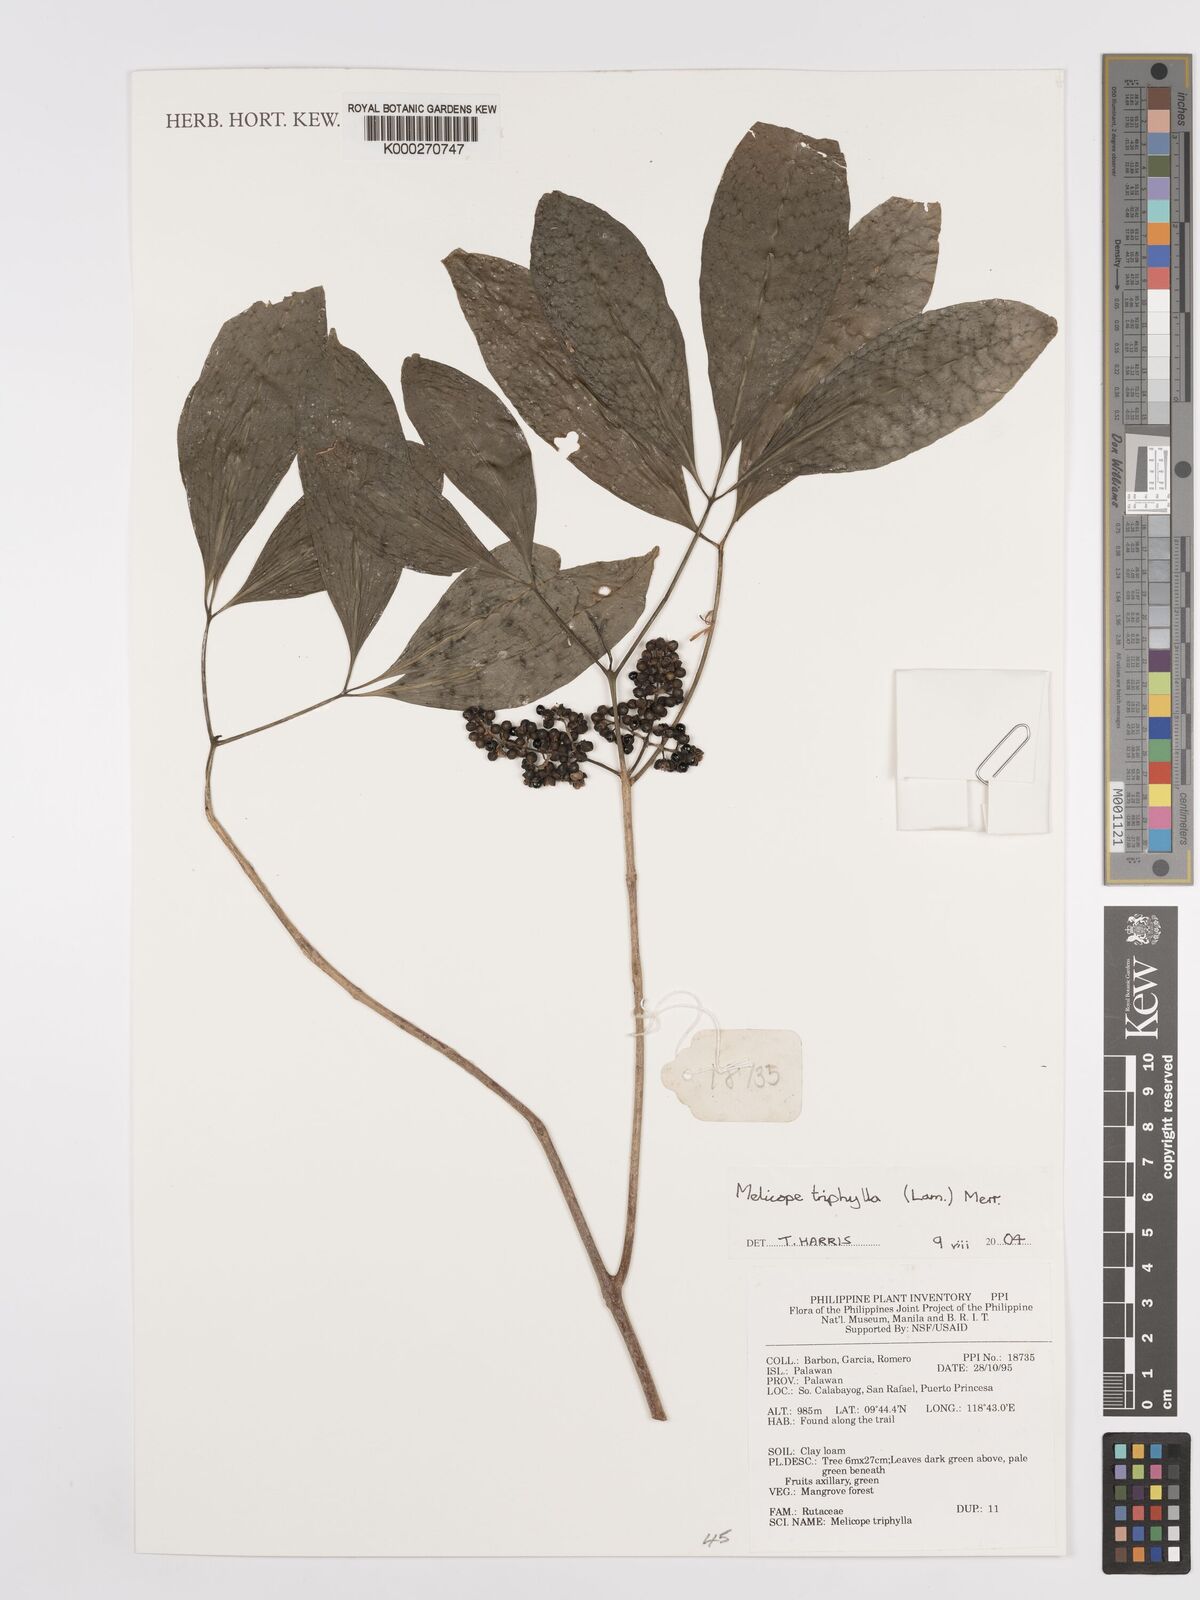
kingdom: Plantae
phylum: Tracheophyta
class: Magnoliopsida
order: Sapindales
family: Rutaceae
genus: Melicope
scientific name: Melicope triphylla
